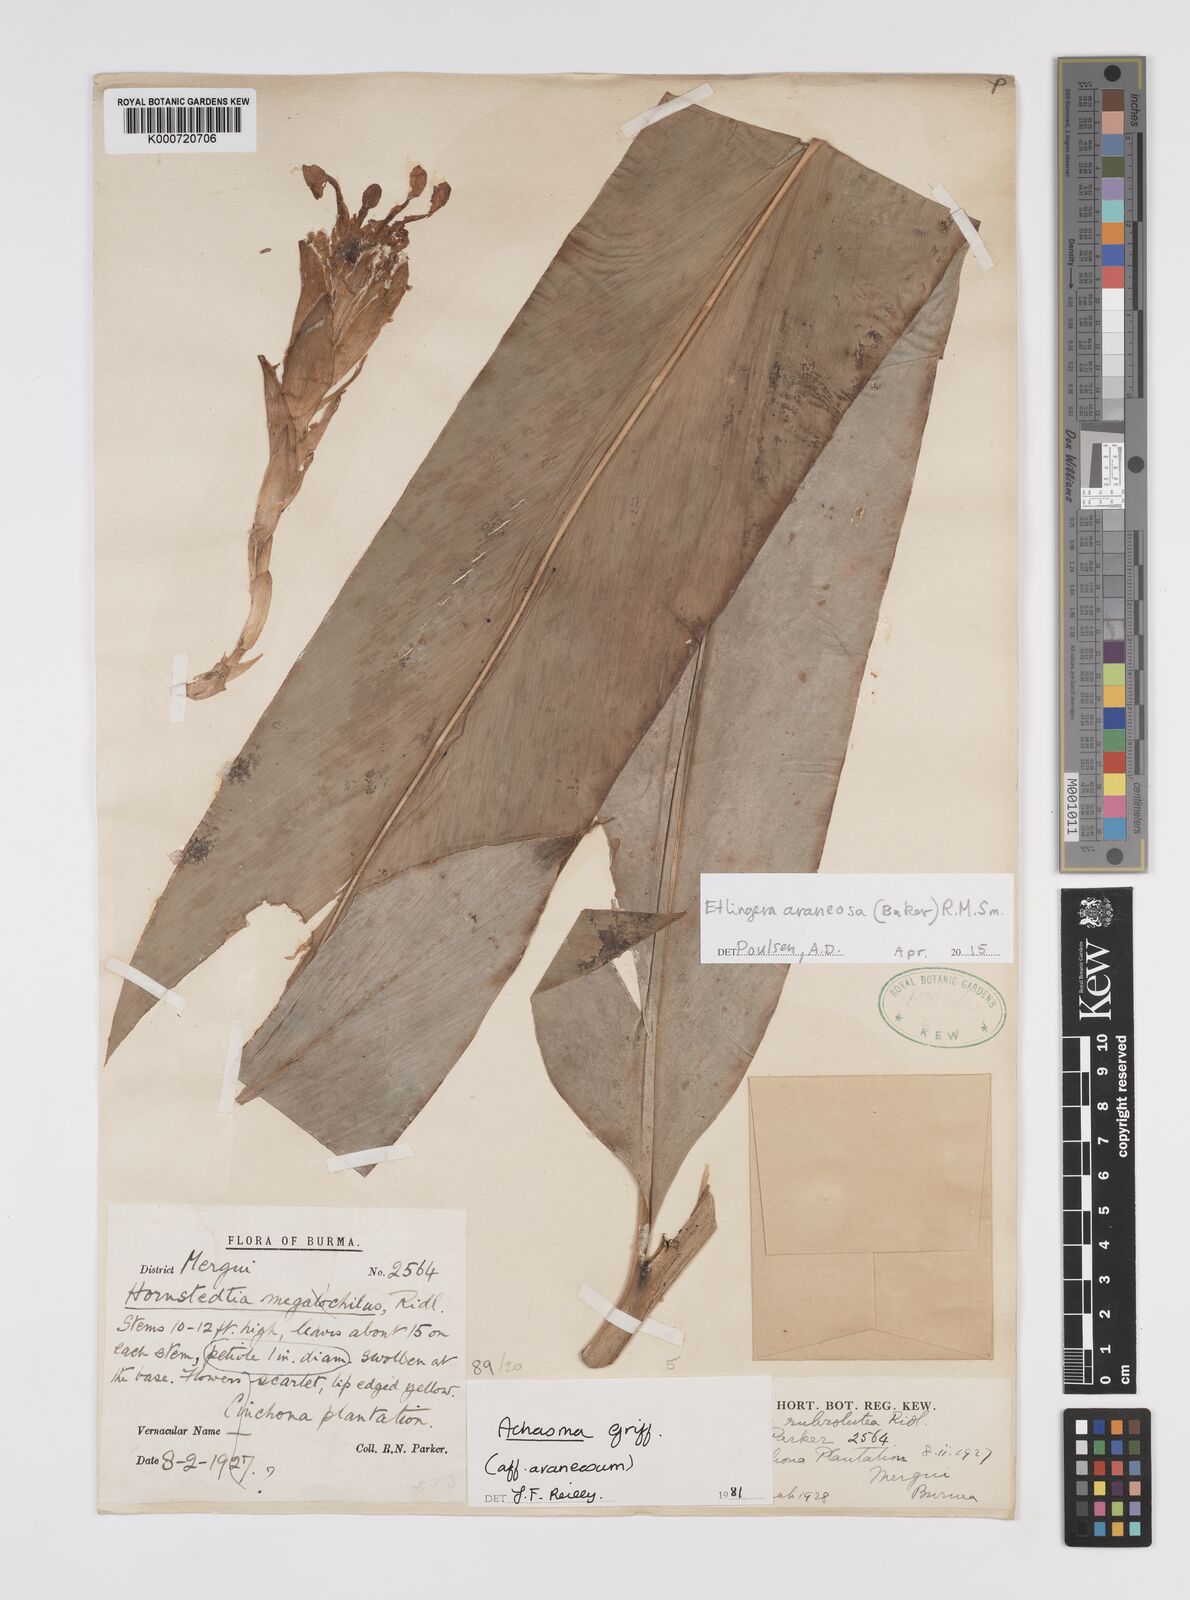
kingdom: Plantae
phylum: Tracheophyta
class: Liliopsida
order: Zingiberales
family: Zingiberaceae
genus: Etlingera
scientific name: Etlingera araneosa
